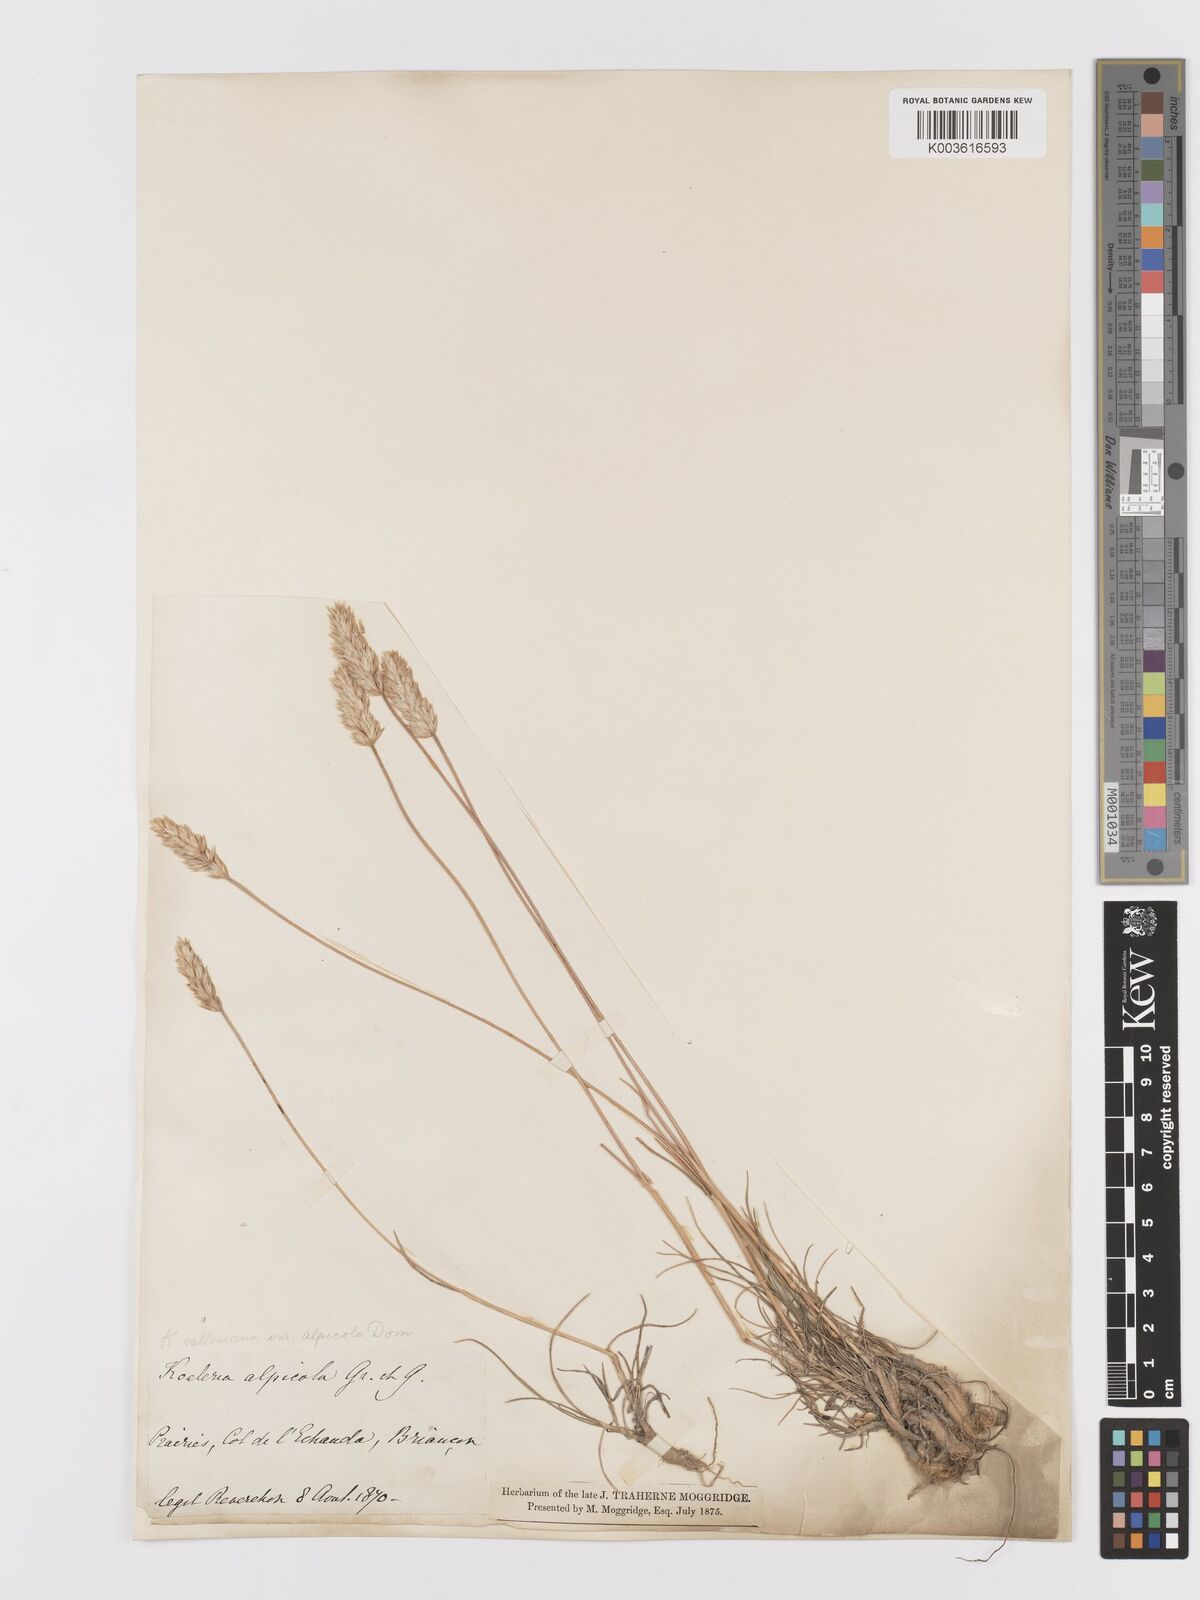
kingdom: Plantae
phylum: Tracheophyta
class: Liliopsida
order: Poales
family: Poaceae
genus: Koeleria
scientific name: Koeleria vallesiana
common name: Somerset hair-grass
